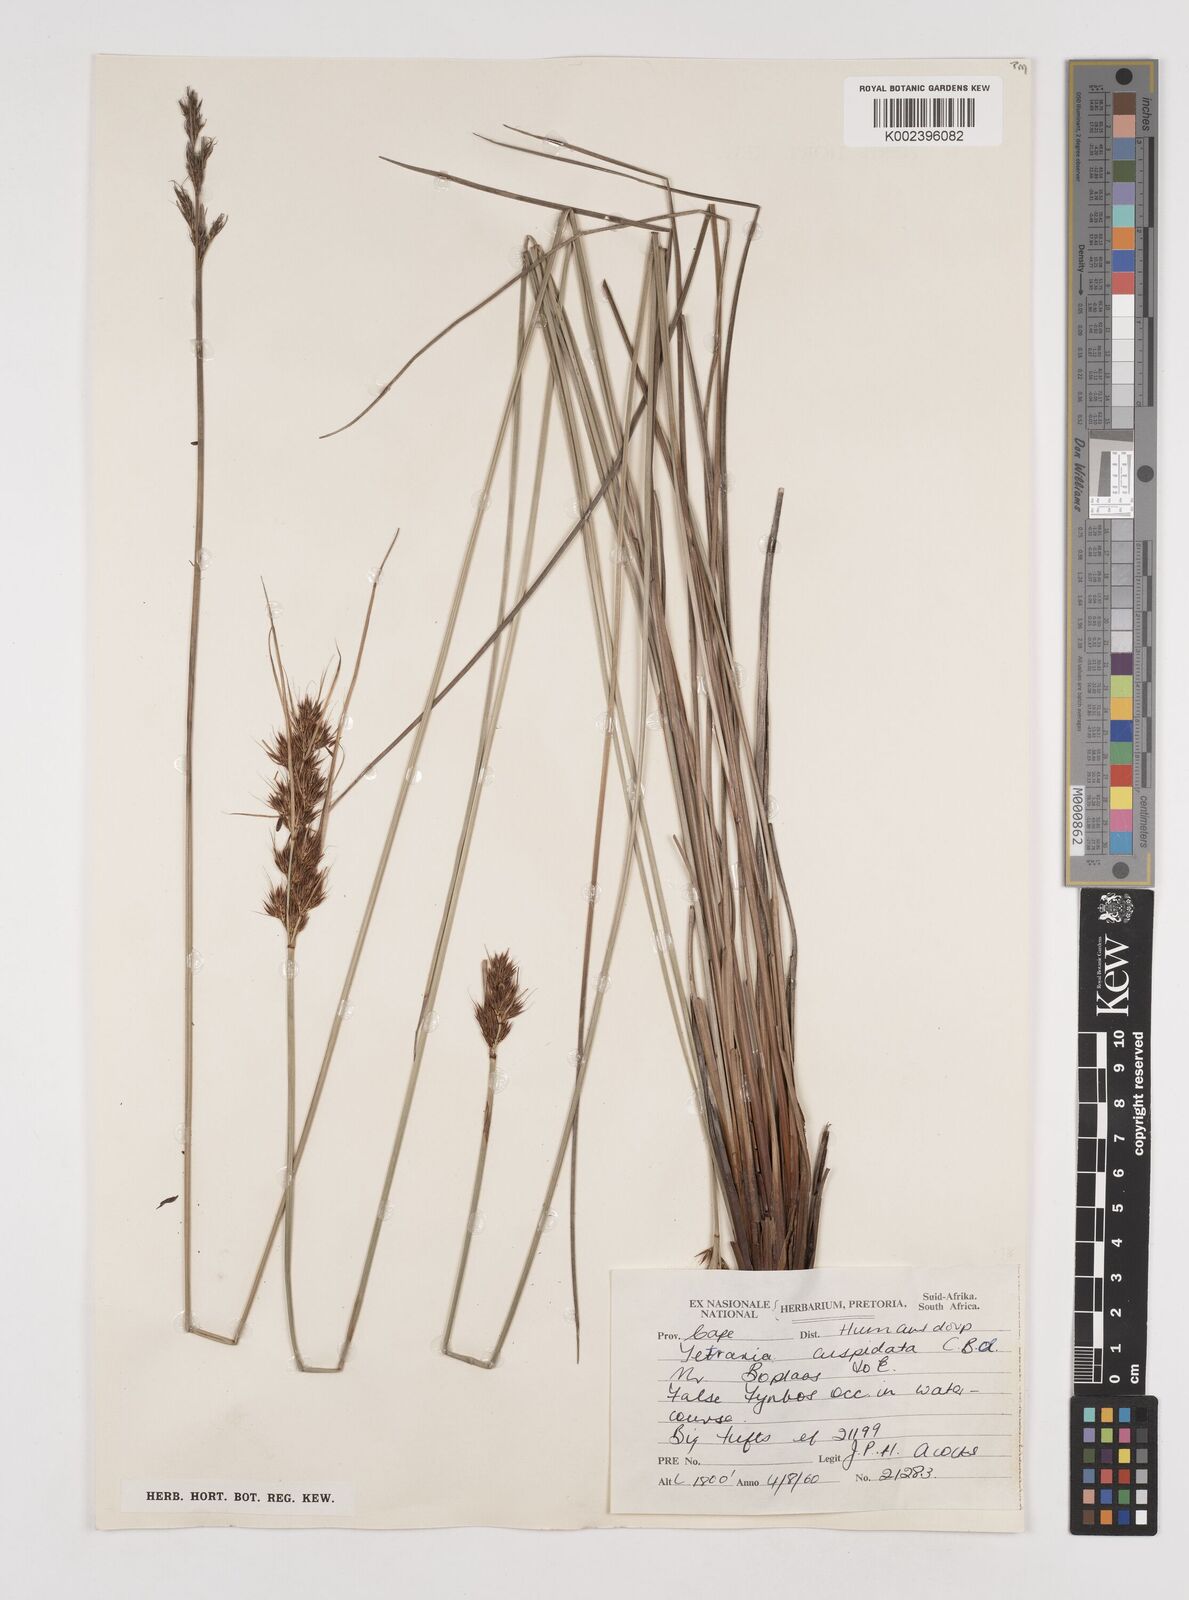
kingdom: Plantae
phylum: Tracheophyta
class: Liliopsida
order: Poales
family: Cyperaceae
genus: Schoenus
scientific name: Schoenus cuspidatus
